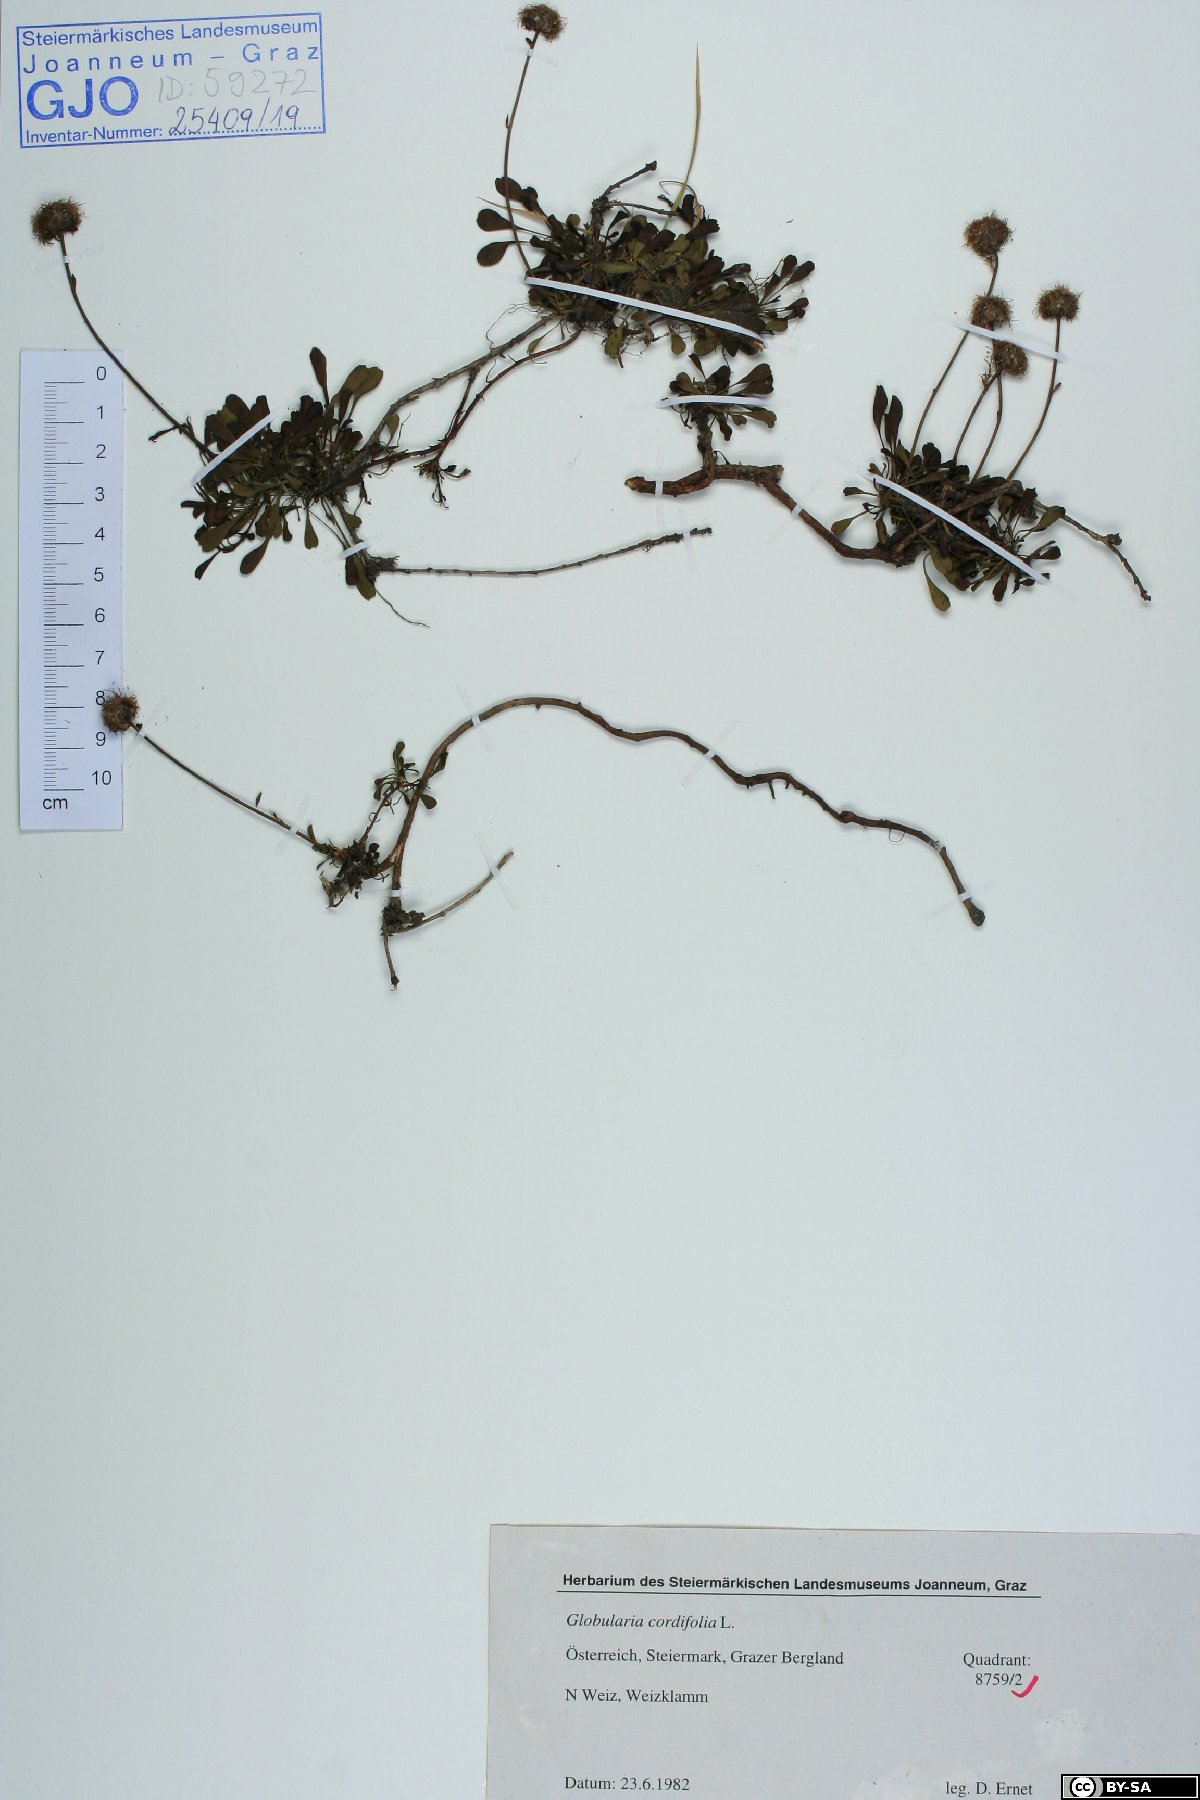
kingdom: Plantae
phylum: Tracheophyta
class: Magnoliopsida
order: Lamiales
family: Plantaginaceae
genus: Globularia
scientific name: Globularia cordifolia
